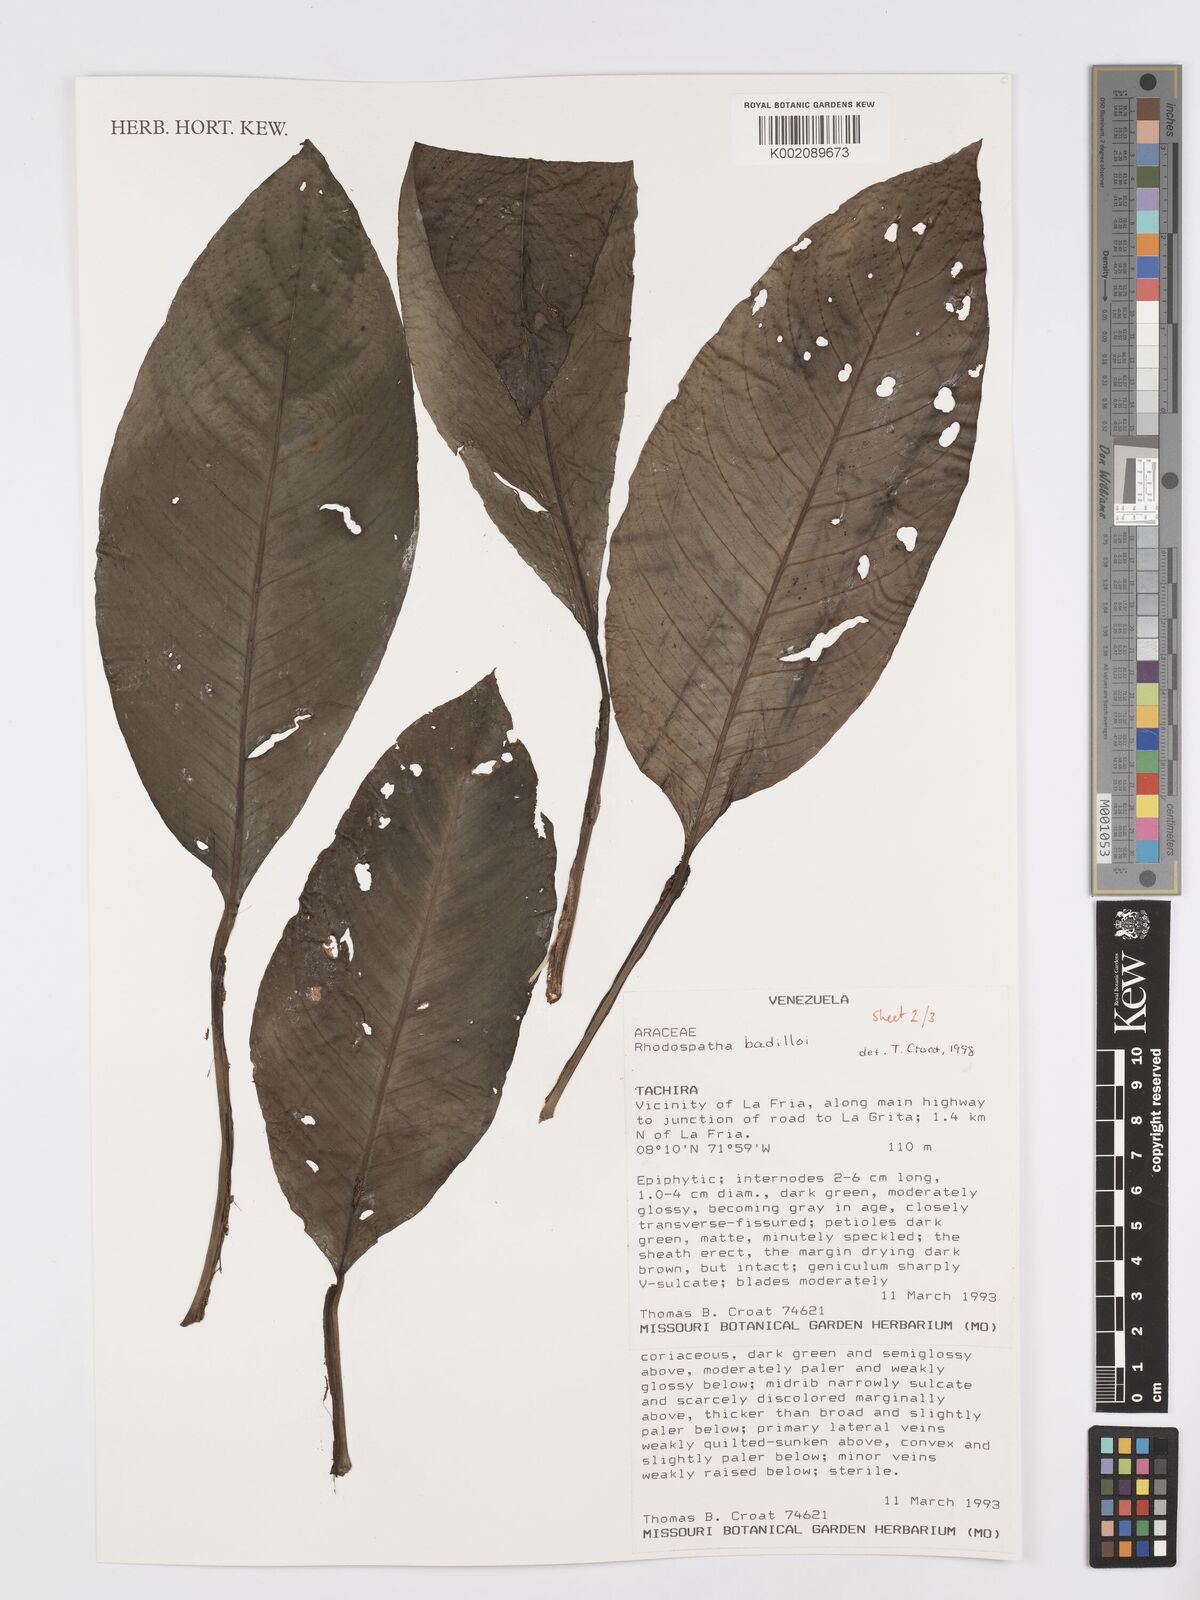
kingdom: Plantae
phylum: Tracheophyta
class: Liliopsida
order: Alismatales
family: Araceae
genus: Rhodospatha
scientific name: Rhodospatha badilloi
